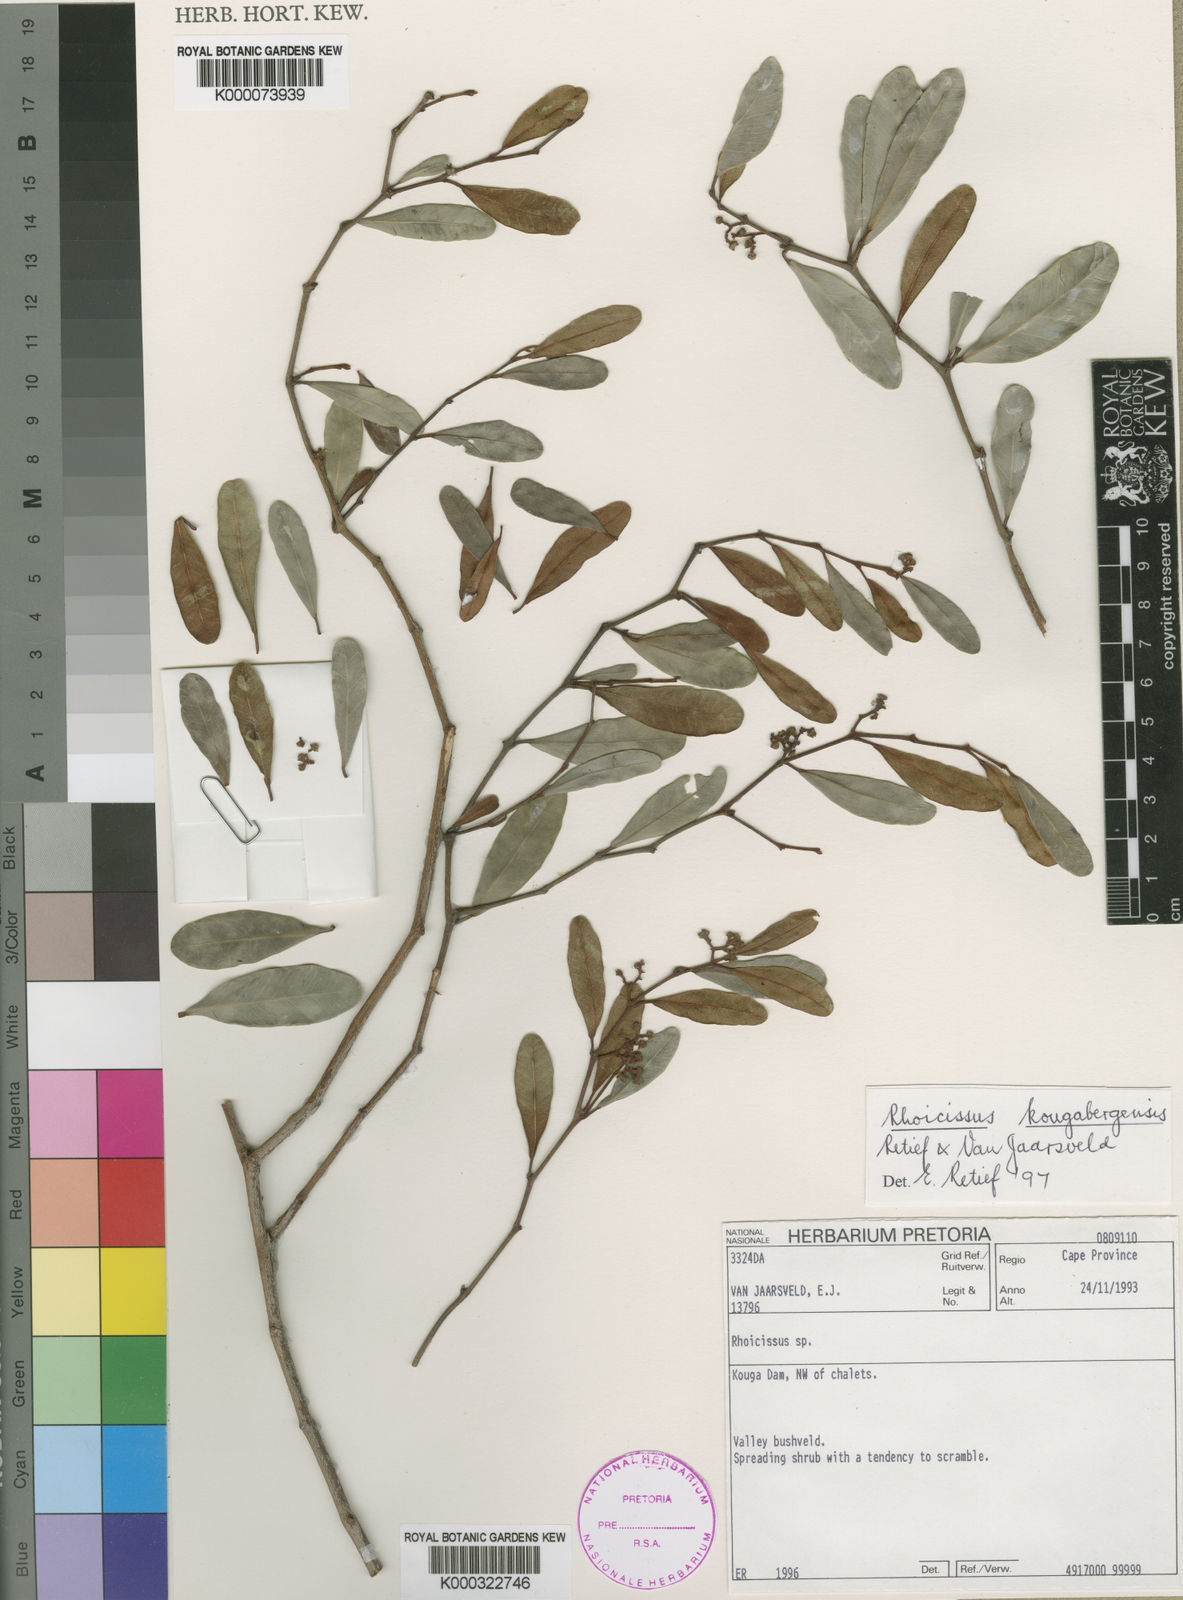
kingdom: Plantae
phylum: Tracheophyta
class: Magnoliopsida
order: Vitales
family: Vitaceae
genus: Rhoicissus
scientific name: Rhoicissus kougabergensis
